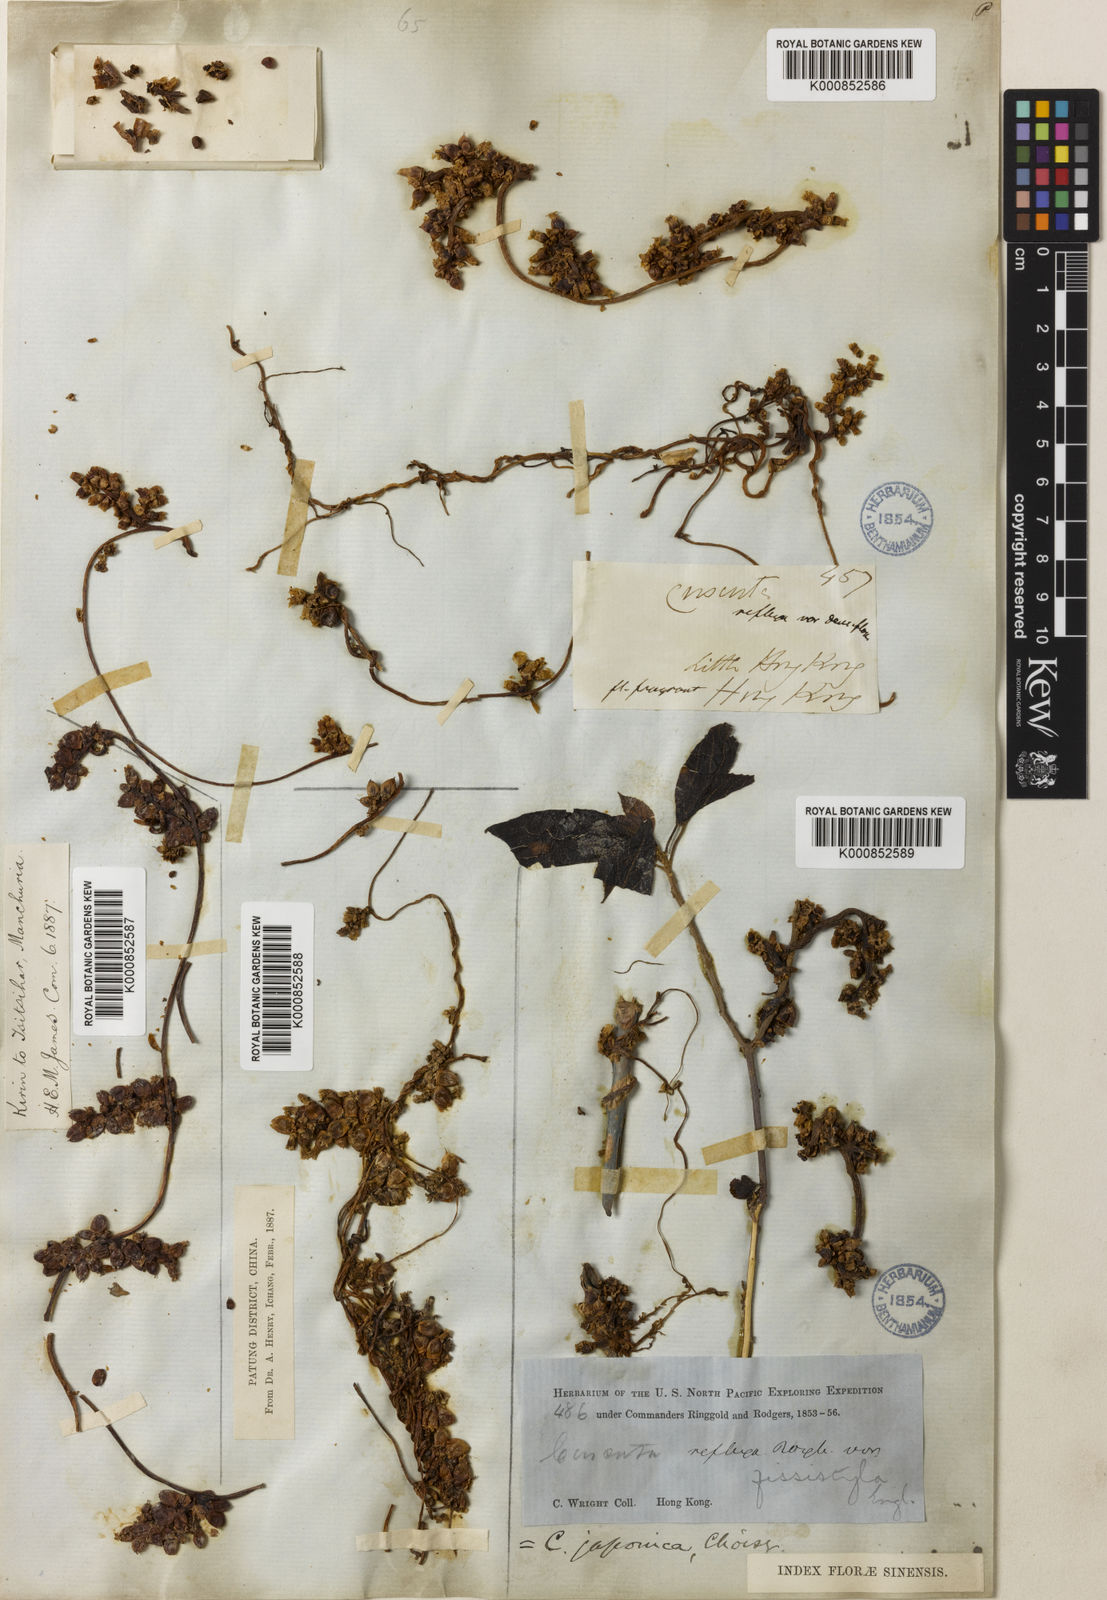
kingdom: Plantae
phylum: Tracheophyta
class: Magnoliopsida
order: Solanales
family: Convolvulaceae
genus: Cuscuta
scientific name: Cuscuta japonica
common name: Japanese dodder
